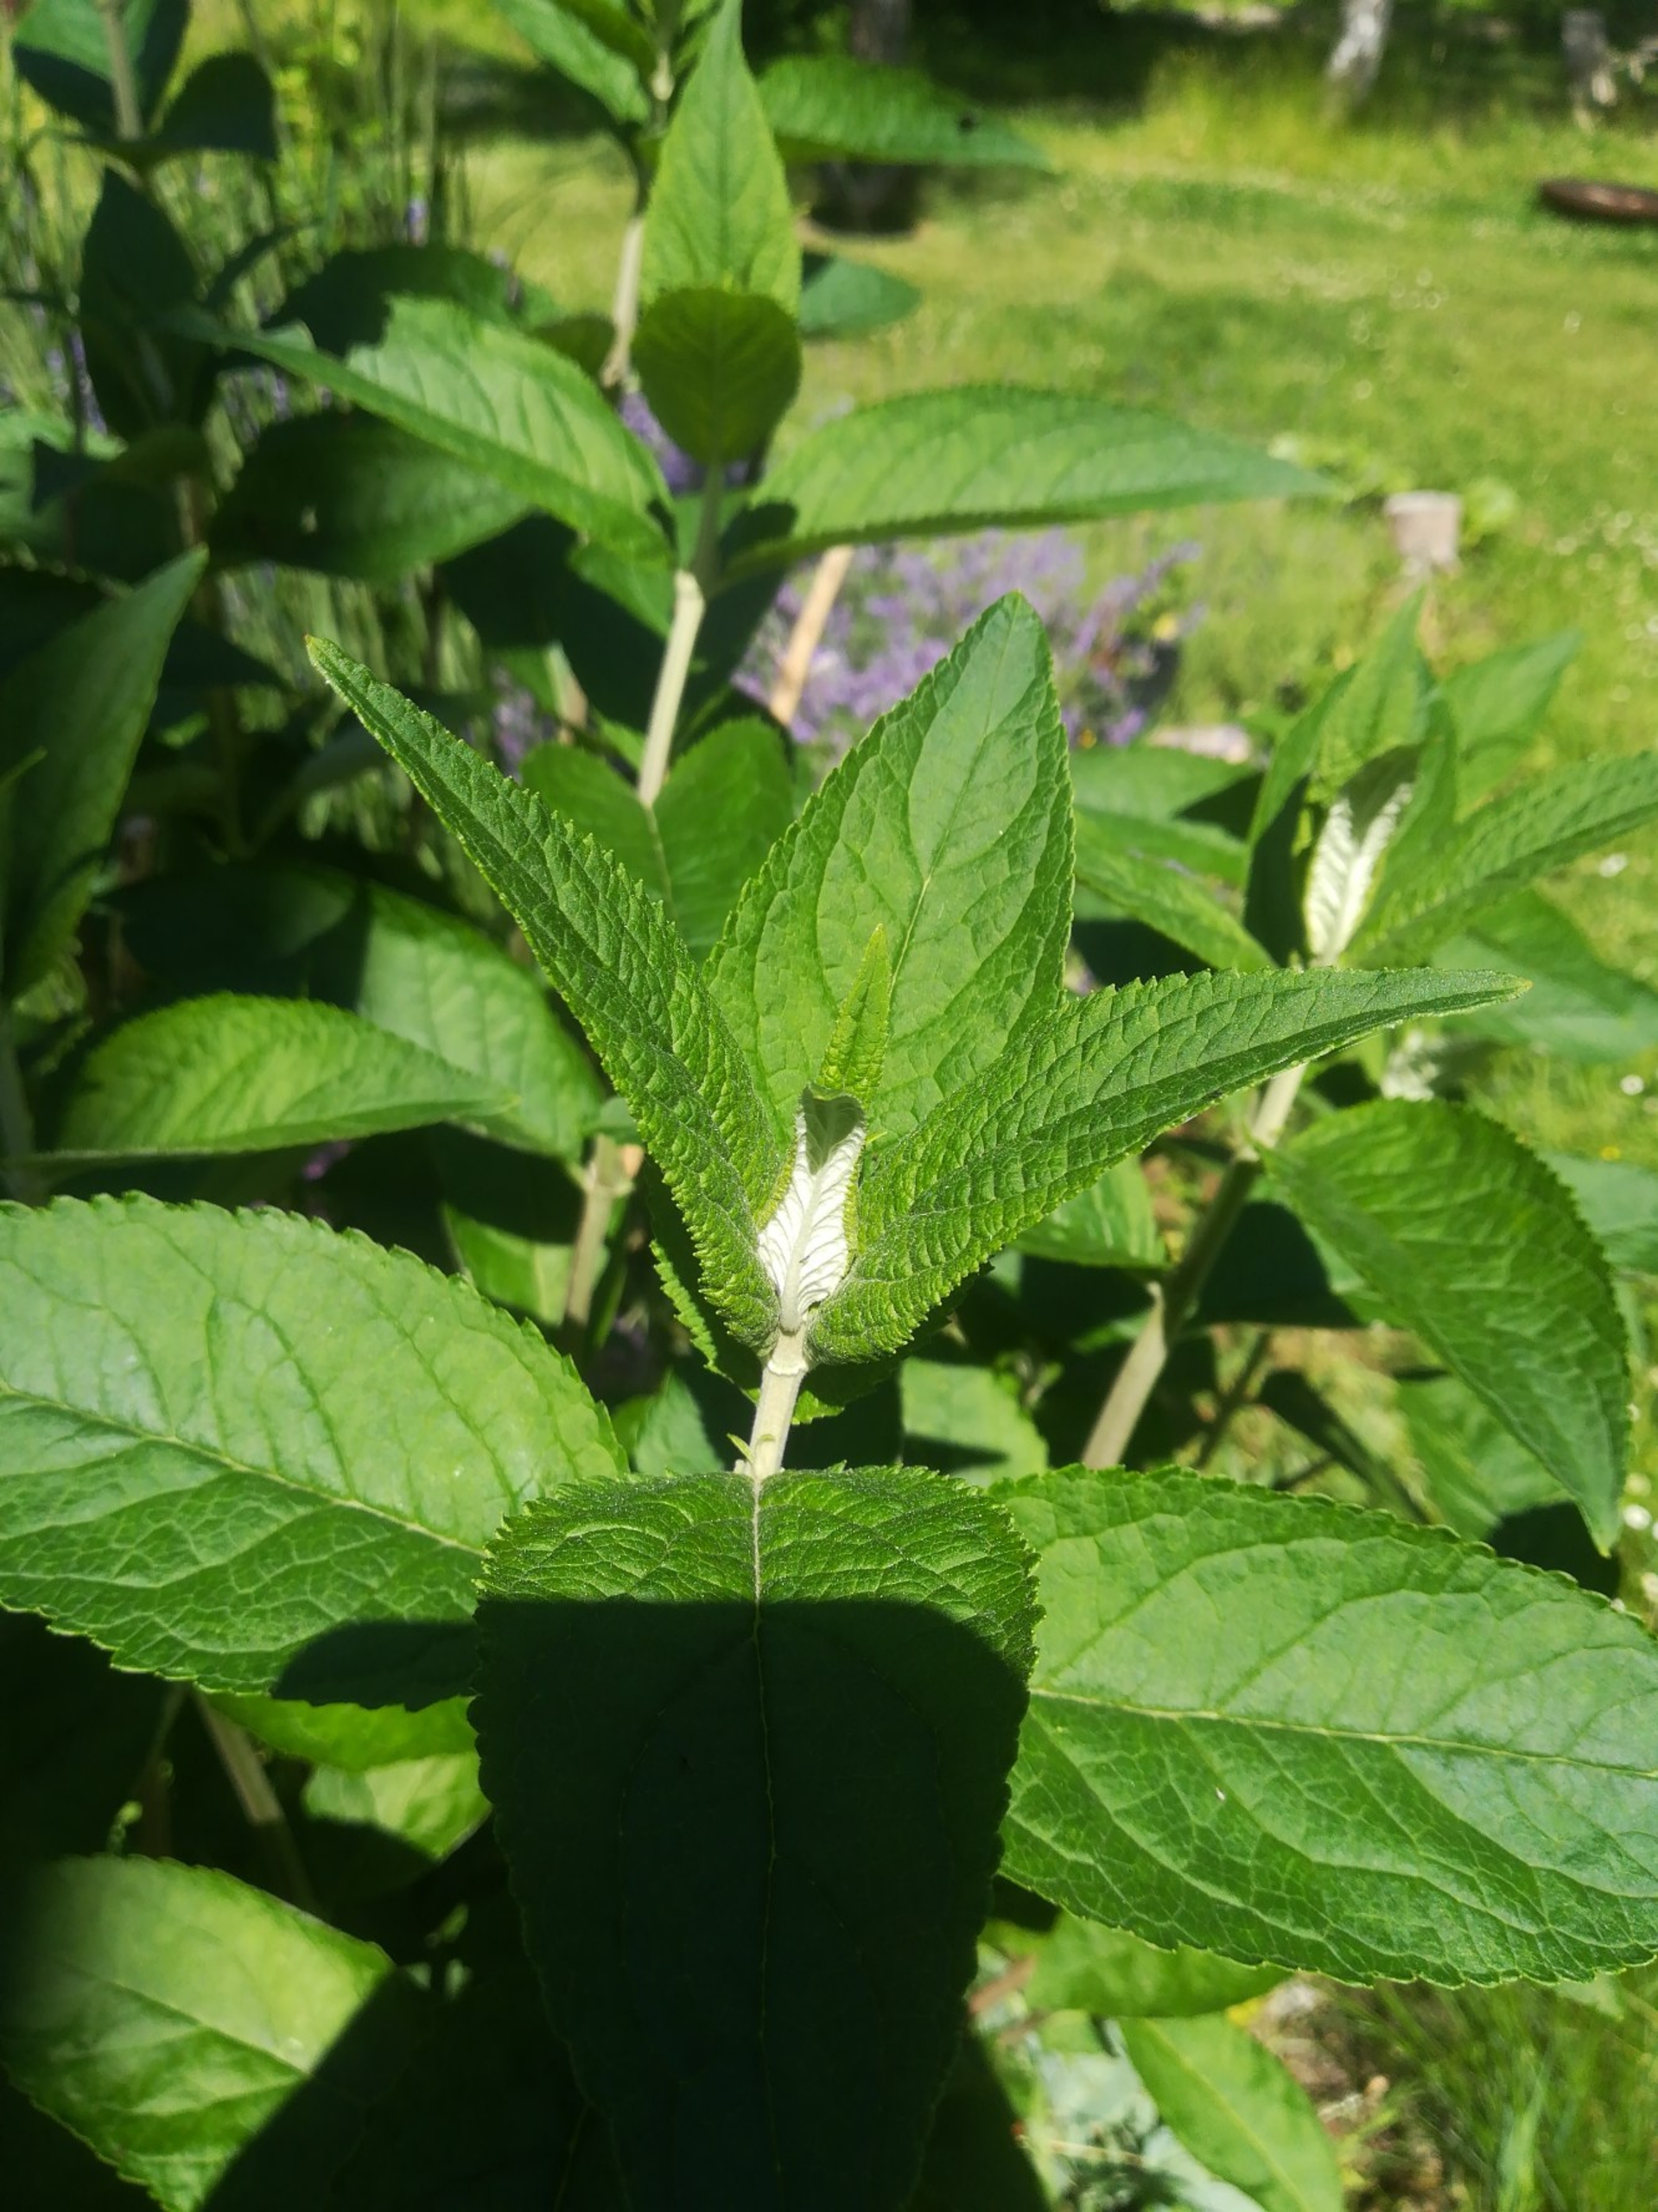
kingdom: Plantae
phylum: Tracheophyta
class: Magnoliopsida
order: Lamiales
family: Scrophulariaceae
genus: Buddleja
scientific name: Buddleja davidii
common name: Sommerfuglebusk
